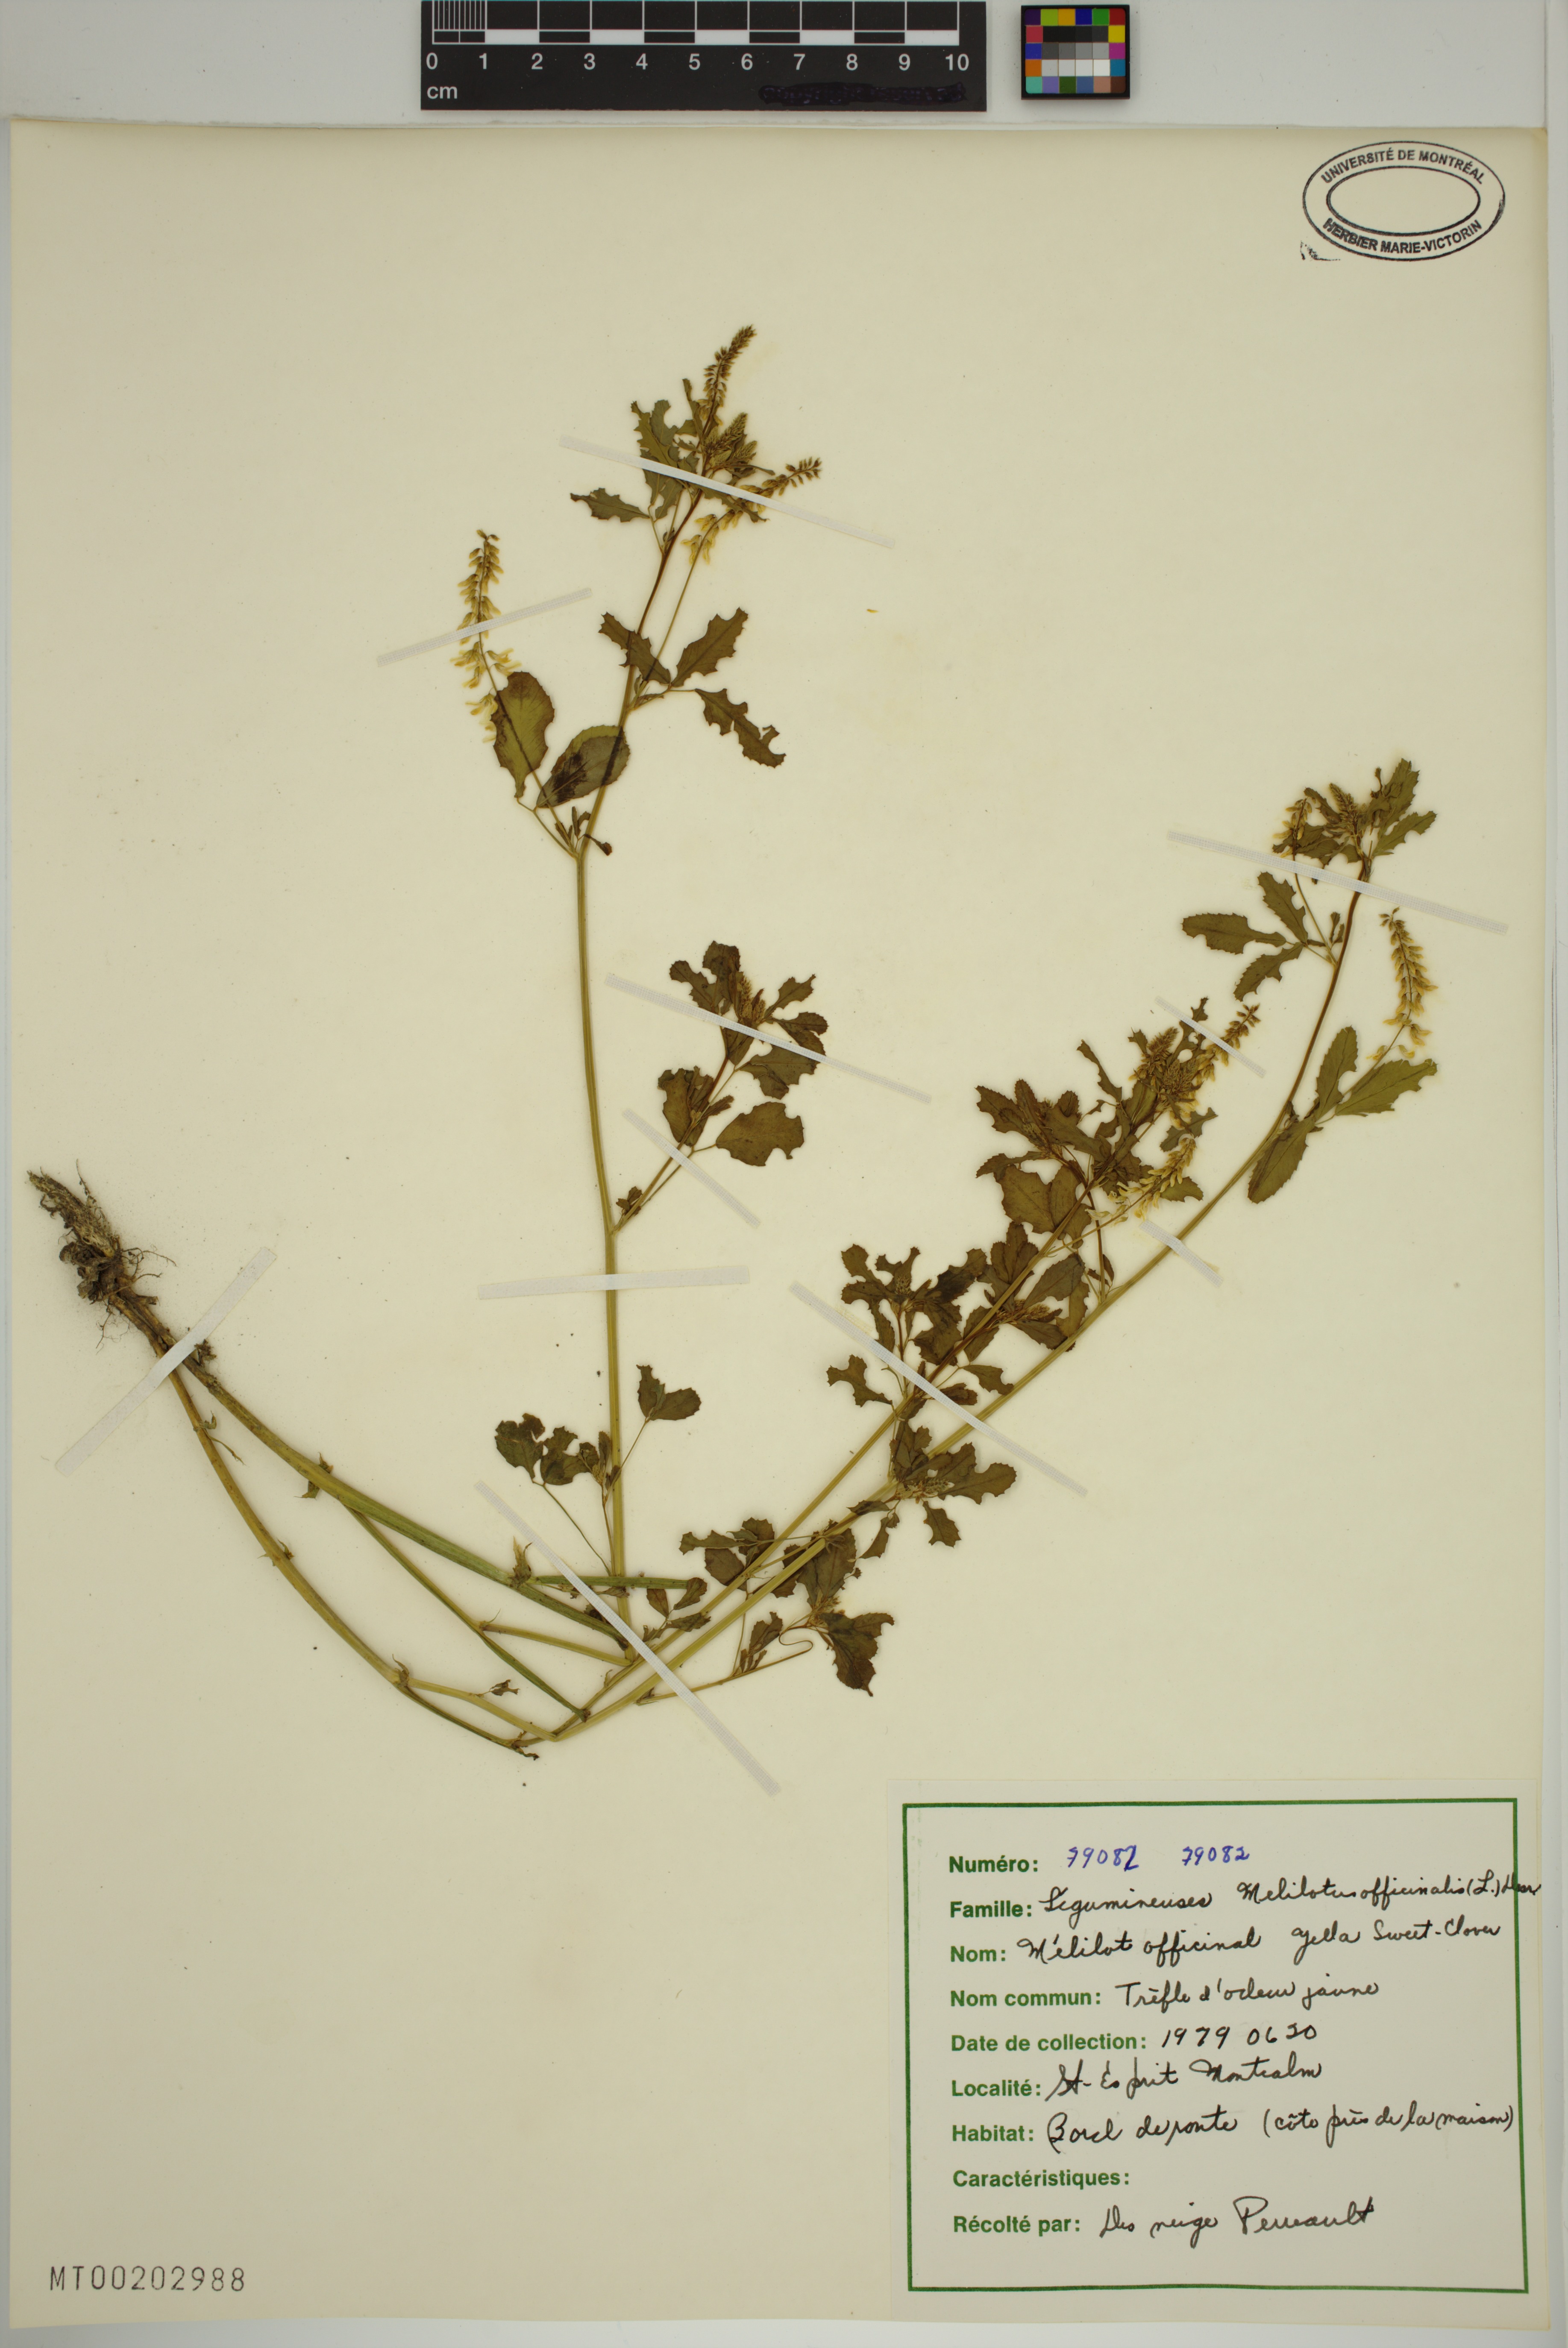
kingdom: Plantae
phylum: Tracheophyta
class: Magnoliopsida
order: Fabales
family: Fabaceae
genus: Melilotus
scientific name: Melilotus officinalis
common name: Sweetclover
